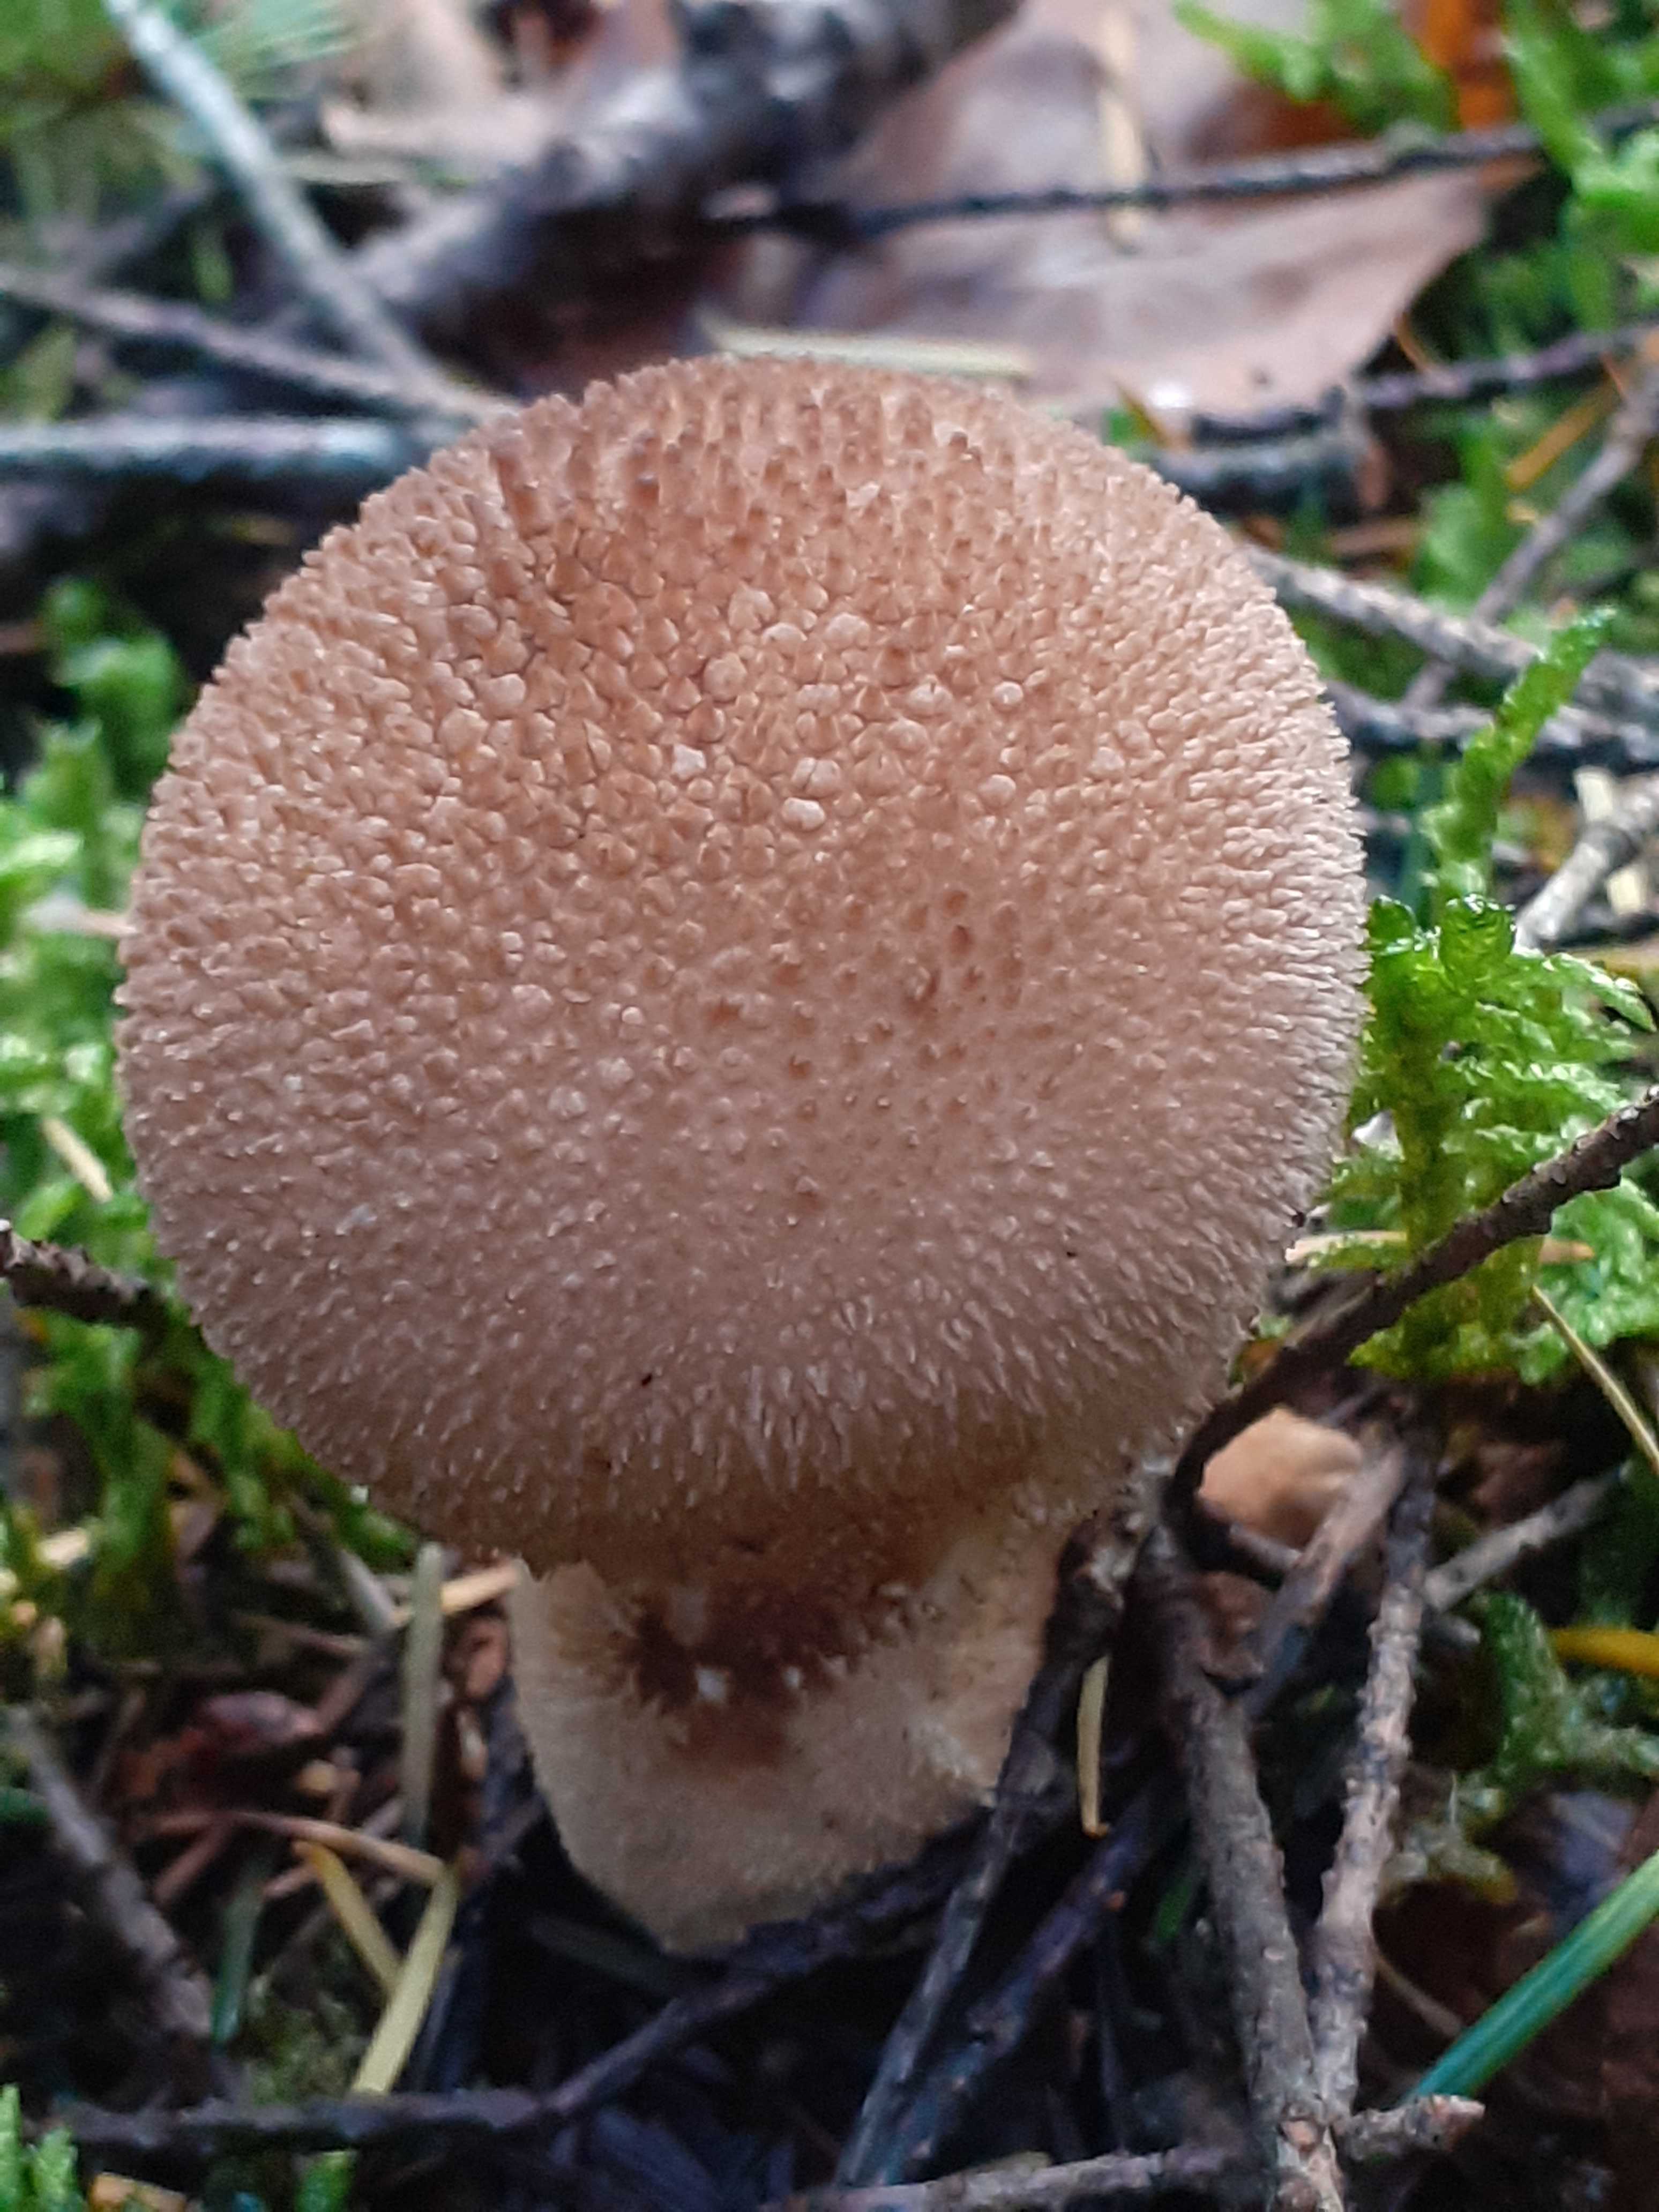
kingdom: Fungi
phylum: Basidiomycota
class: Agaricomycetes
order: Agaricales
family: Lycoperdaceae
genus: Lycoperdon
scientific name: Lycoperdon nigrescens
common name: sortagtig støvbold
